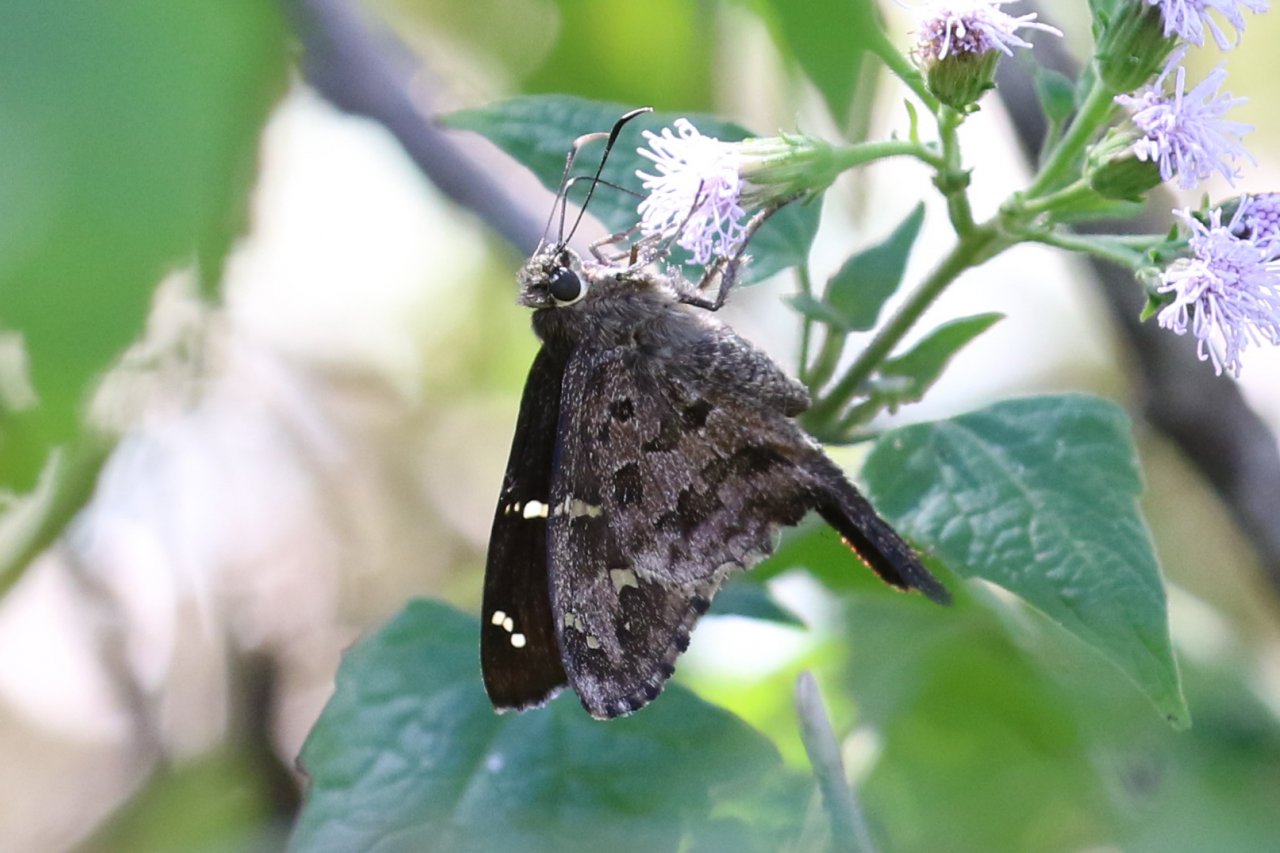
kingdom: Animalia
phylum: Arthropoda
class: Insecta
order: Lepidoptera
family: Hesperiidae
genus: Urbanus
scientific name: Urbanus dorantes
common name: Dorantes Longtail
